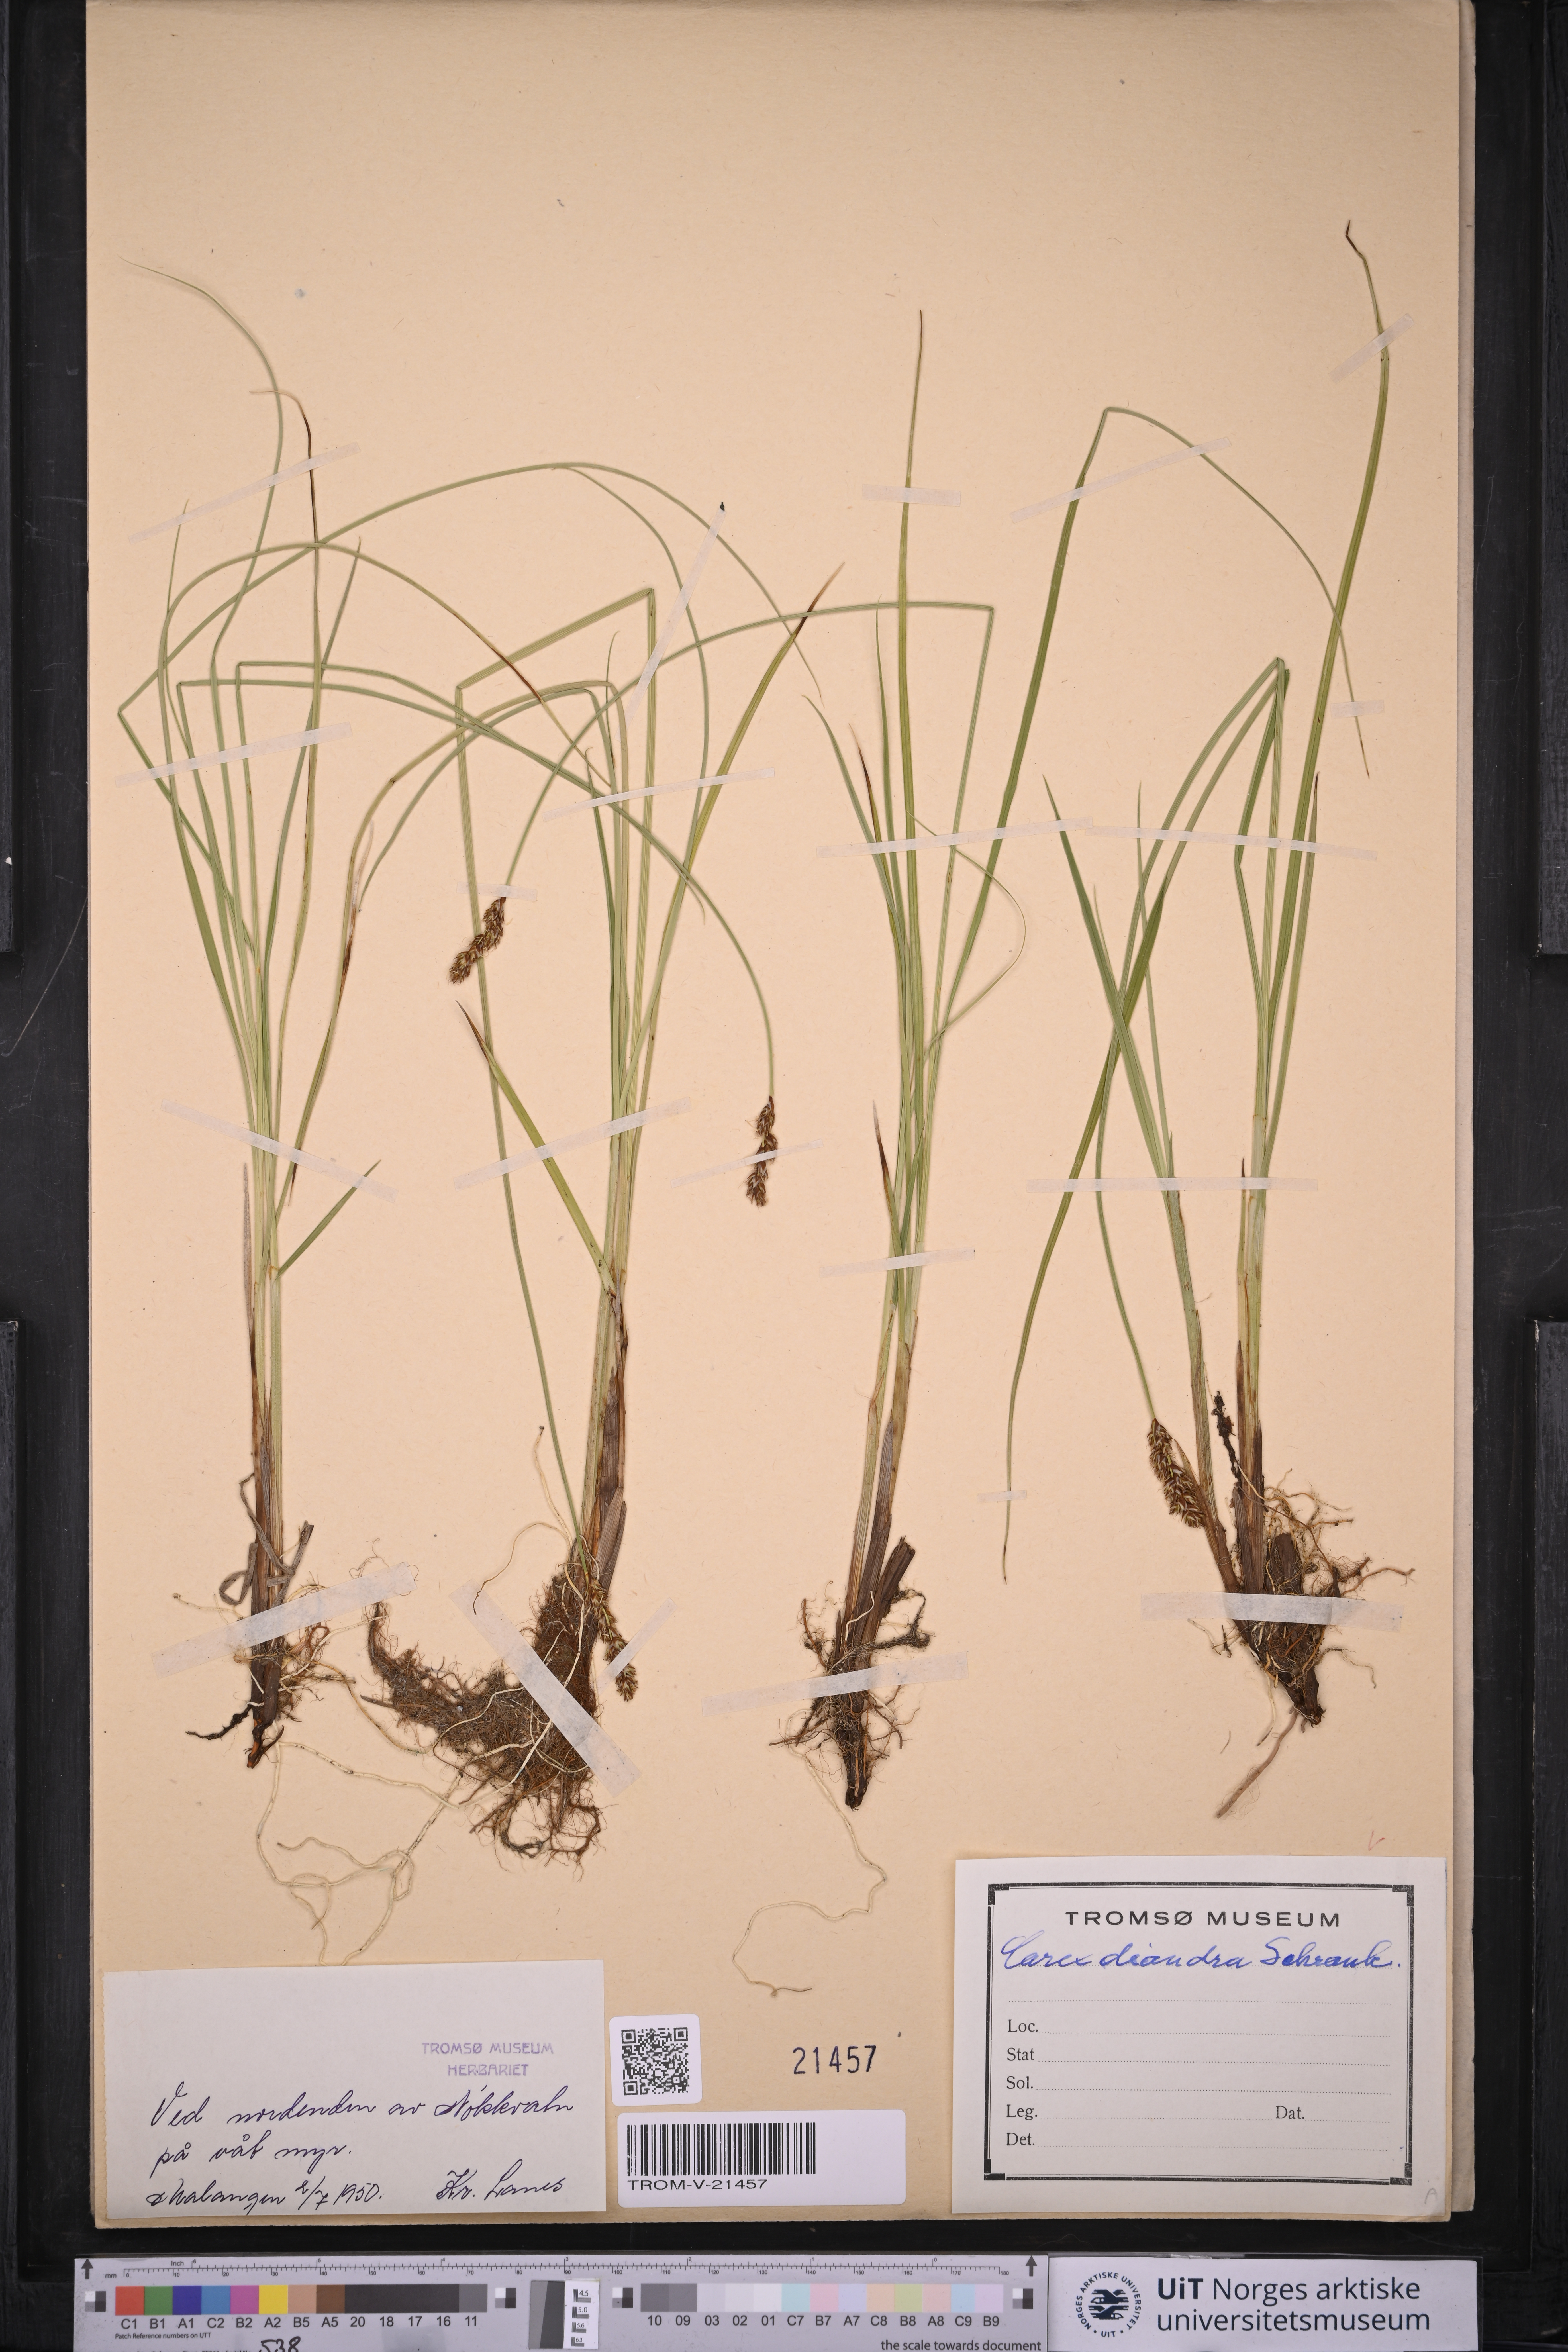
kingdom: Plantae
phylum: Tracheophyta
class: Liliopsida
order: Poales
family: Cyperaceae
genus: Carex
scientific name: Carex diandra
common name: Lesser tussock-sedge
